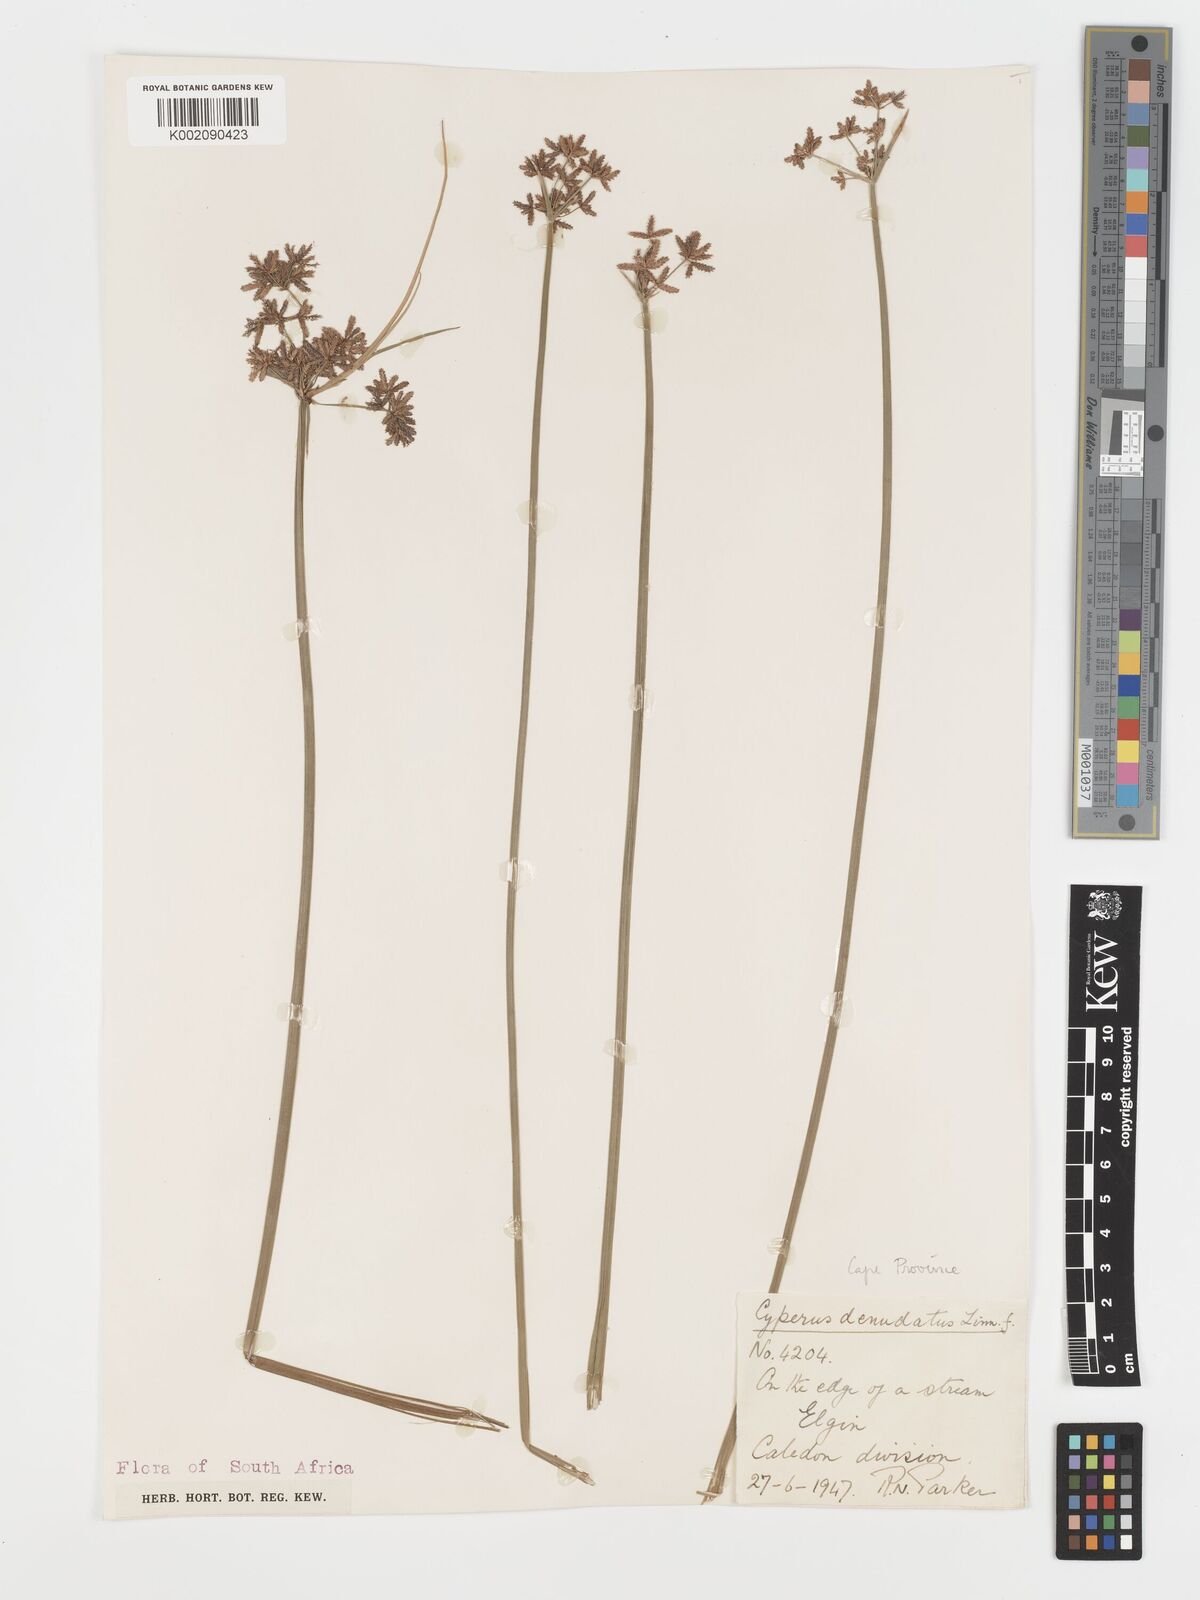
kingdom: Plantae
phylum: Tracheophyta
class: Liliopsida
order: Poales
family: Cyperaceae
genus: Cyperus
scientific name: Cyperus denudatus
